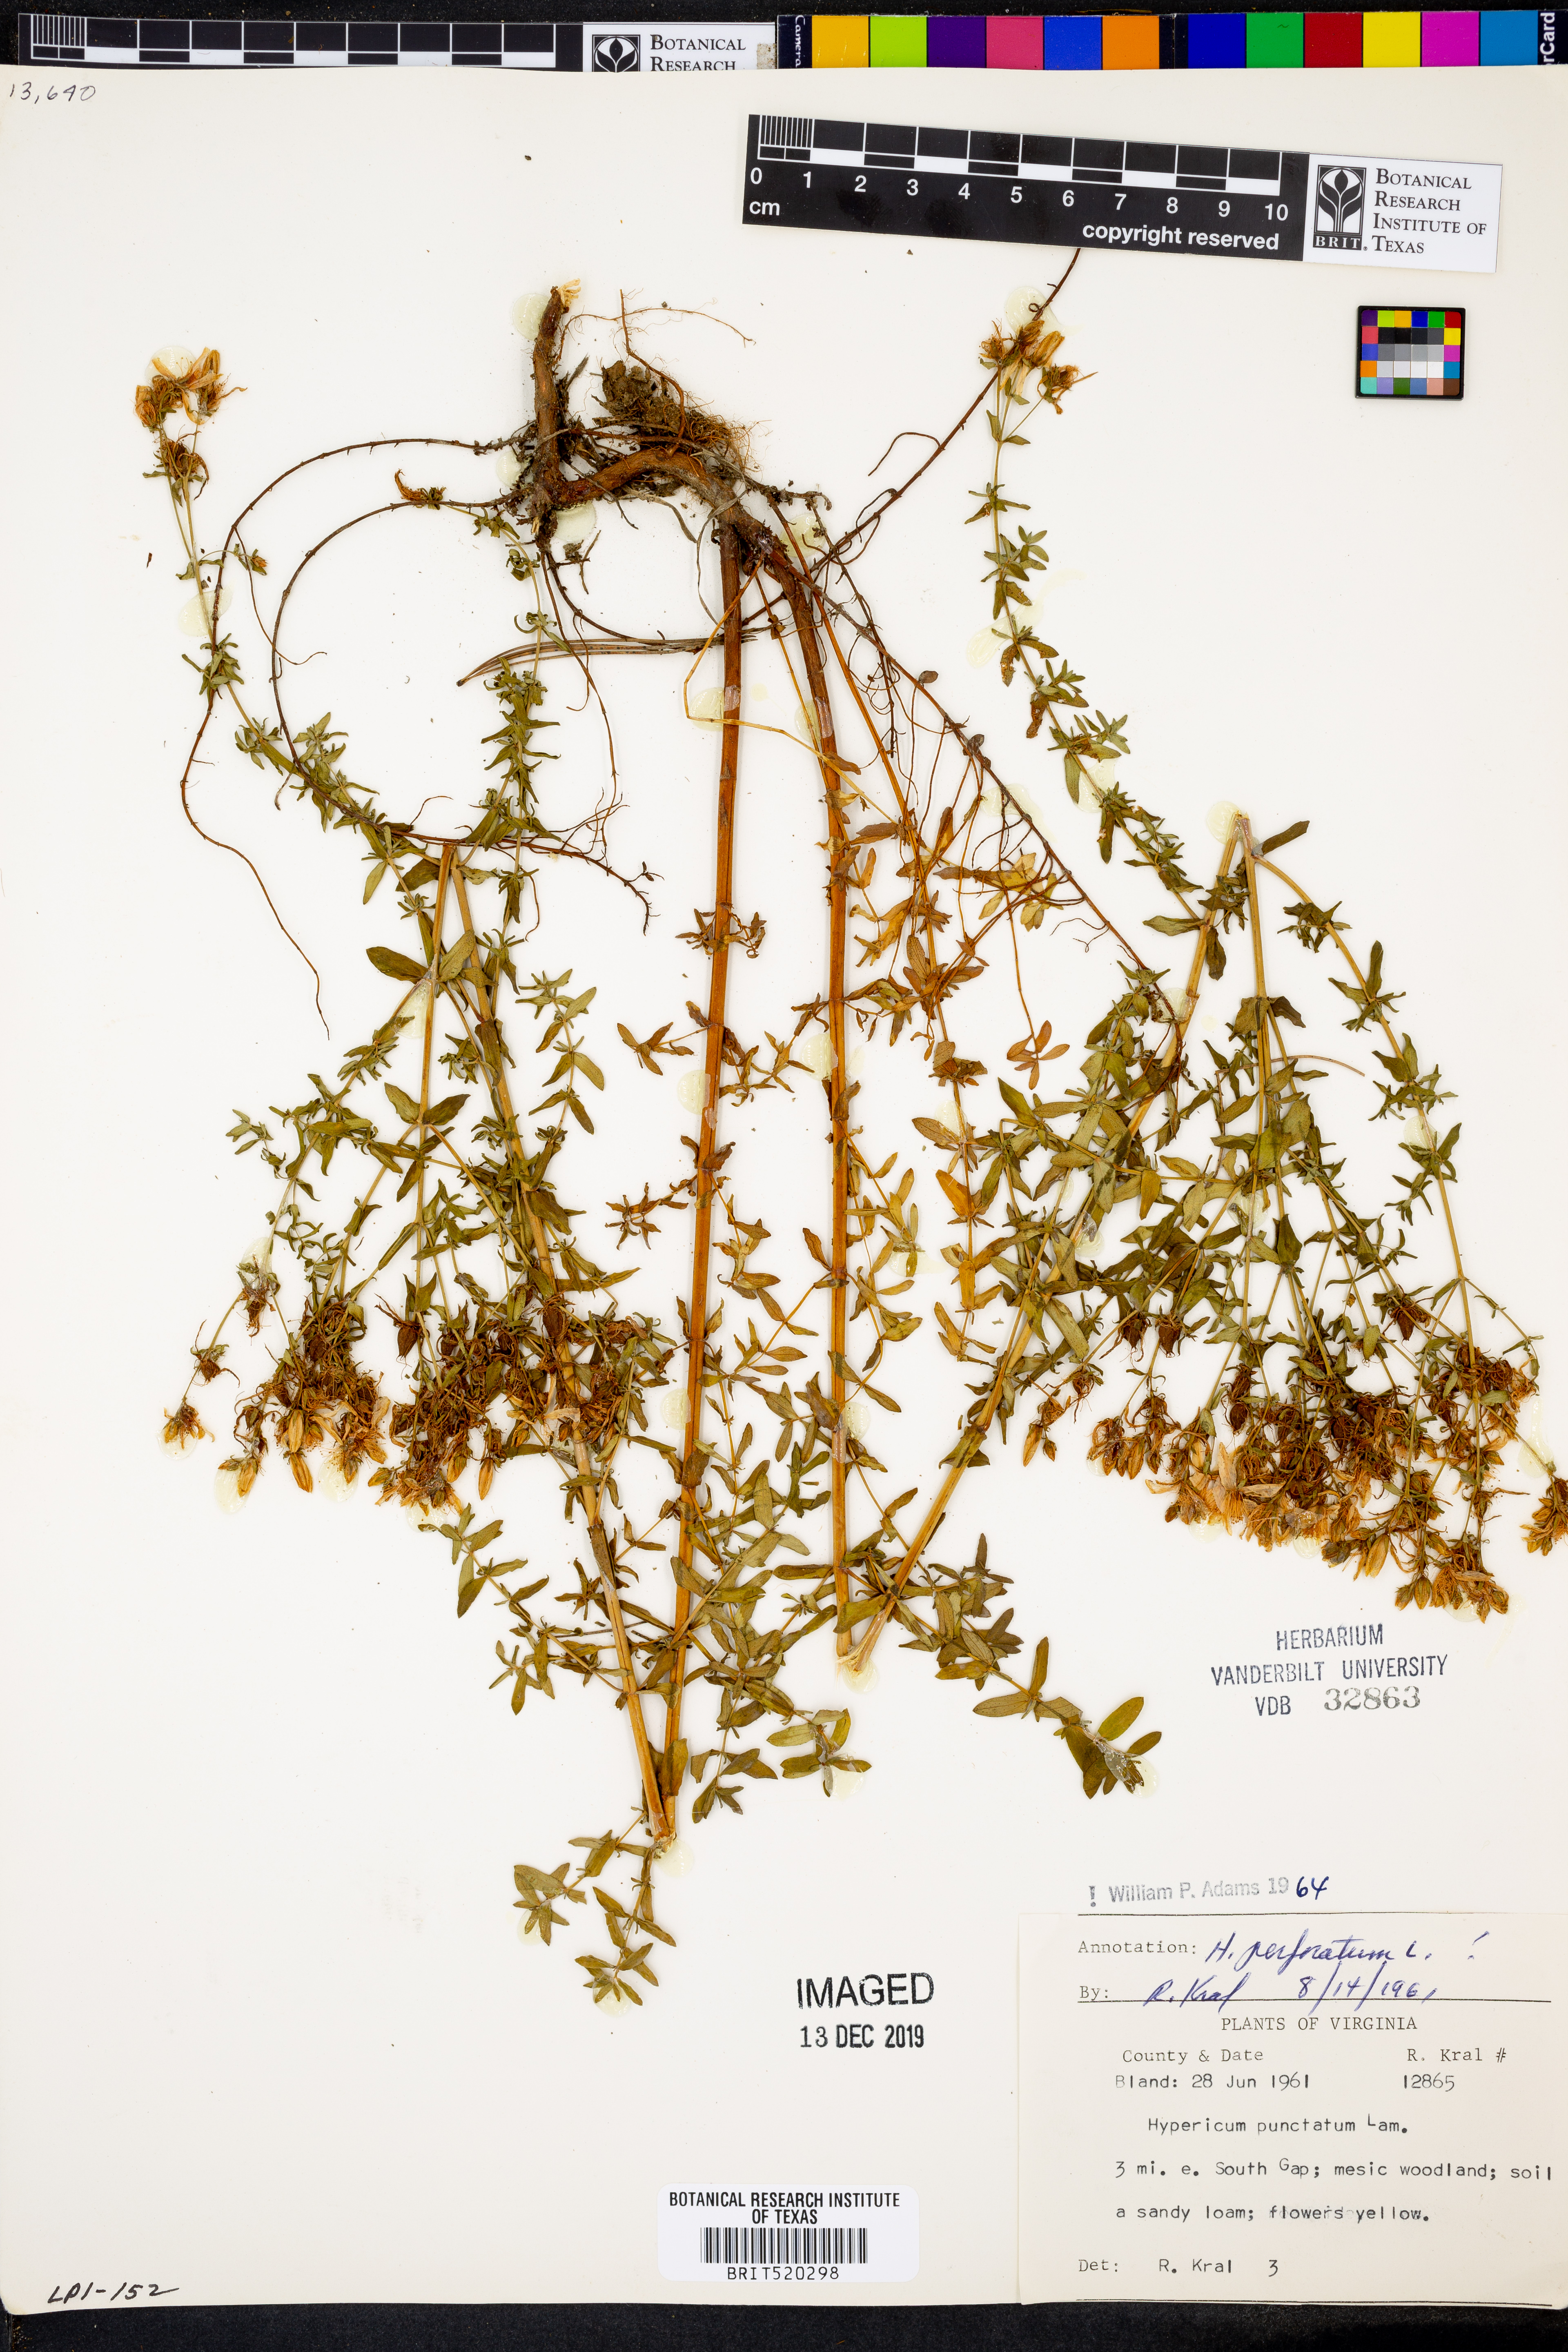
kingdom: Plantae
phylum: Tracheophyta
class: Magnoliopsida
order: Malpighiales
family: Hypericaceae
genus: Hypericum
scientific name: Hypericum punctatum
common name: Spotted st. john's-wort
